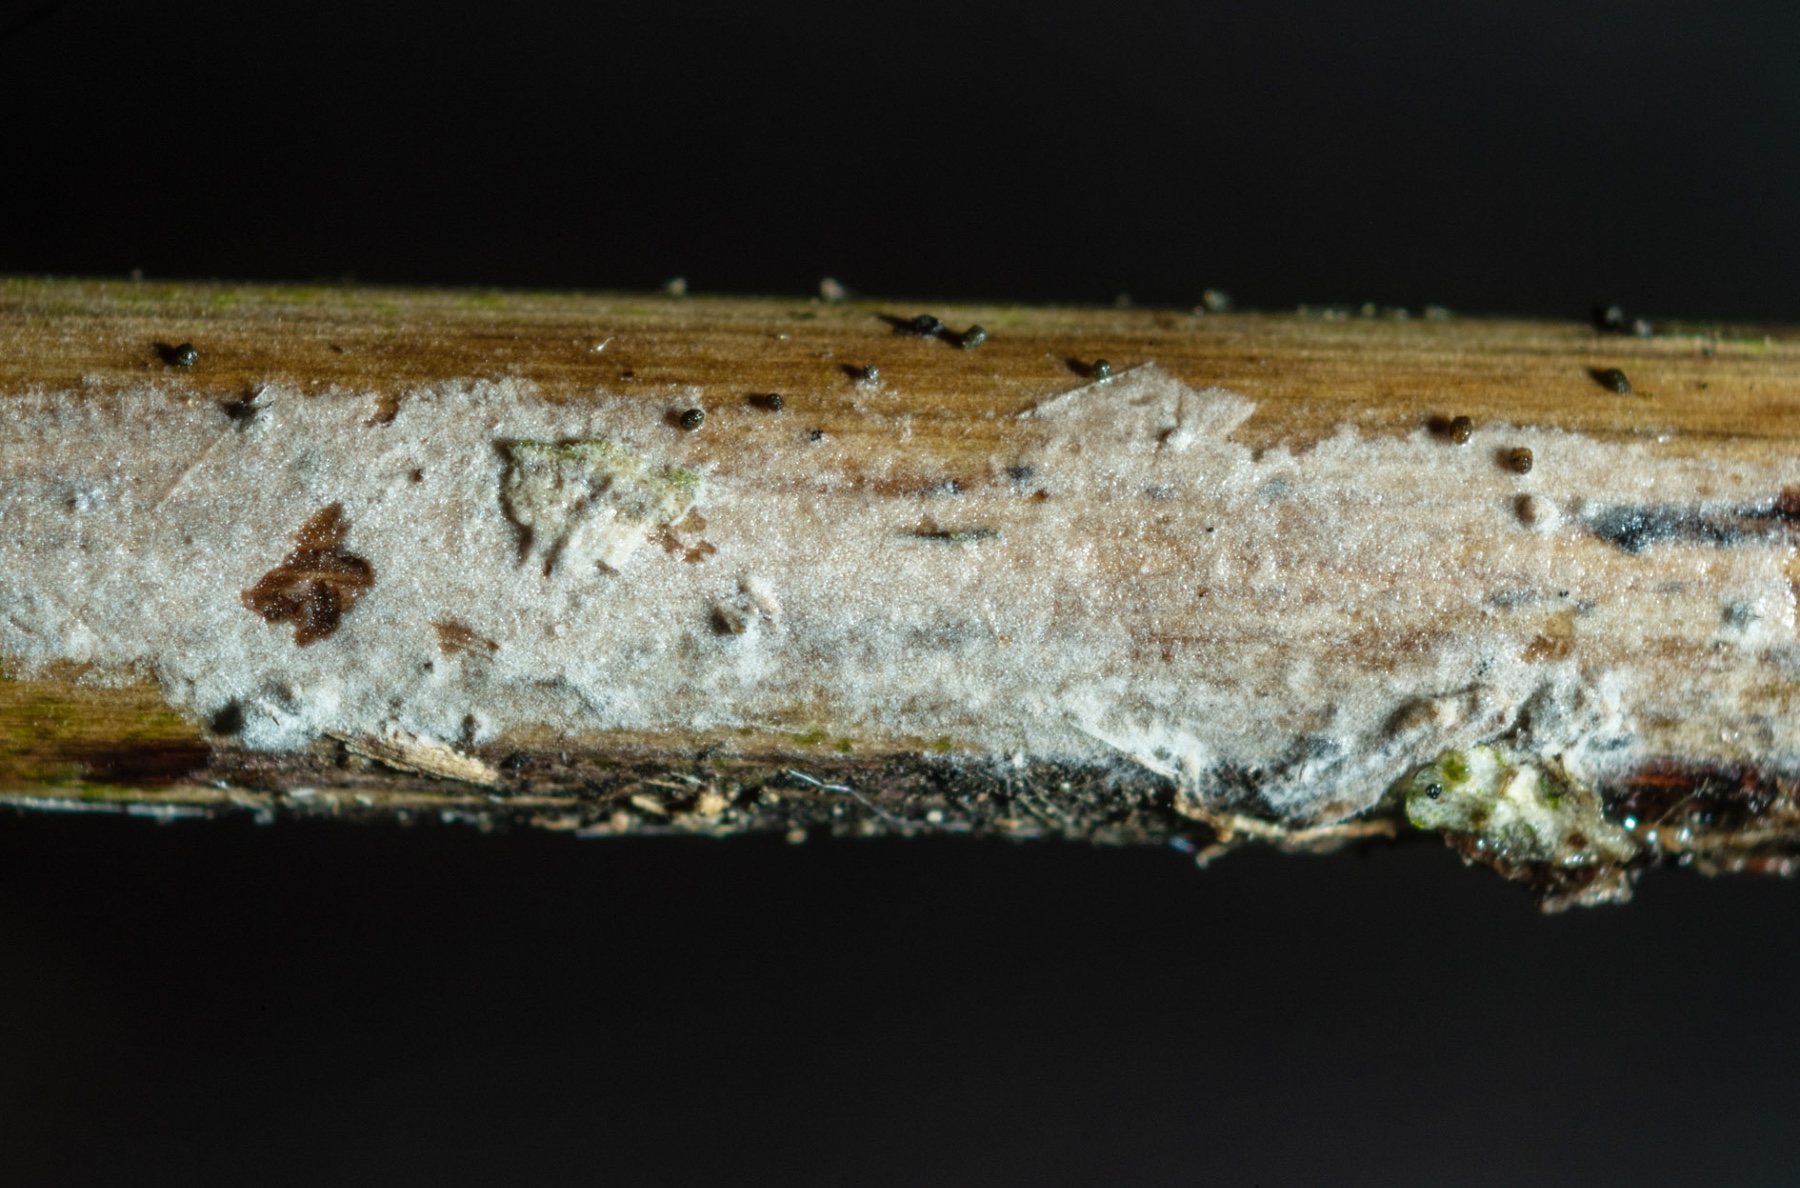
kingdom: Fungi
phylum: Basidiomycota
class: Agaricomycetes
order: Corticiales
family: Corticiaceae
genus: Leptocorticium
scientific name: Leptocorticium utribasidiatum
